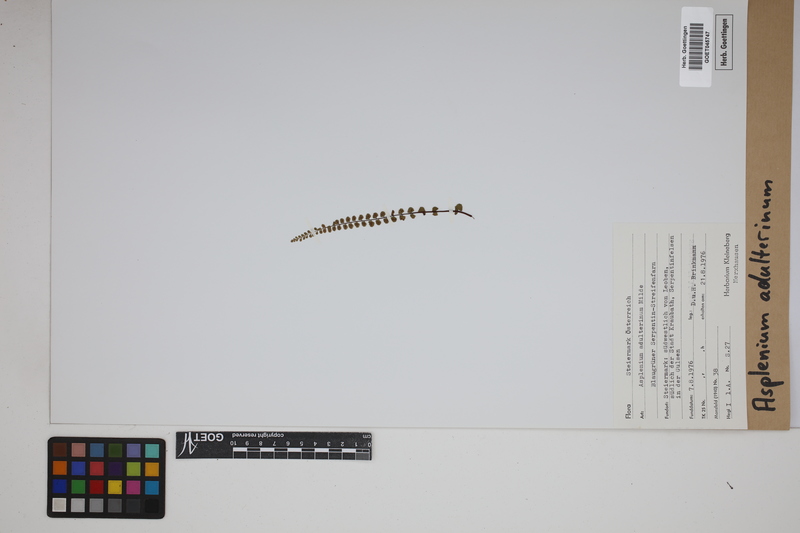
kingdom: Plantae
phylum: Tracheophyta
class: Polypodiopsida
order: Polypodiales
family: Aspleniaceae
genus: Asplenium
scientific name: Asplenium adulterinum
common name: Adulterated spleenwort
